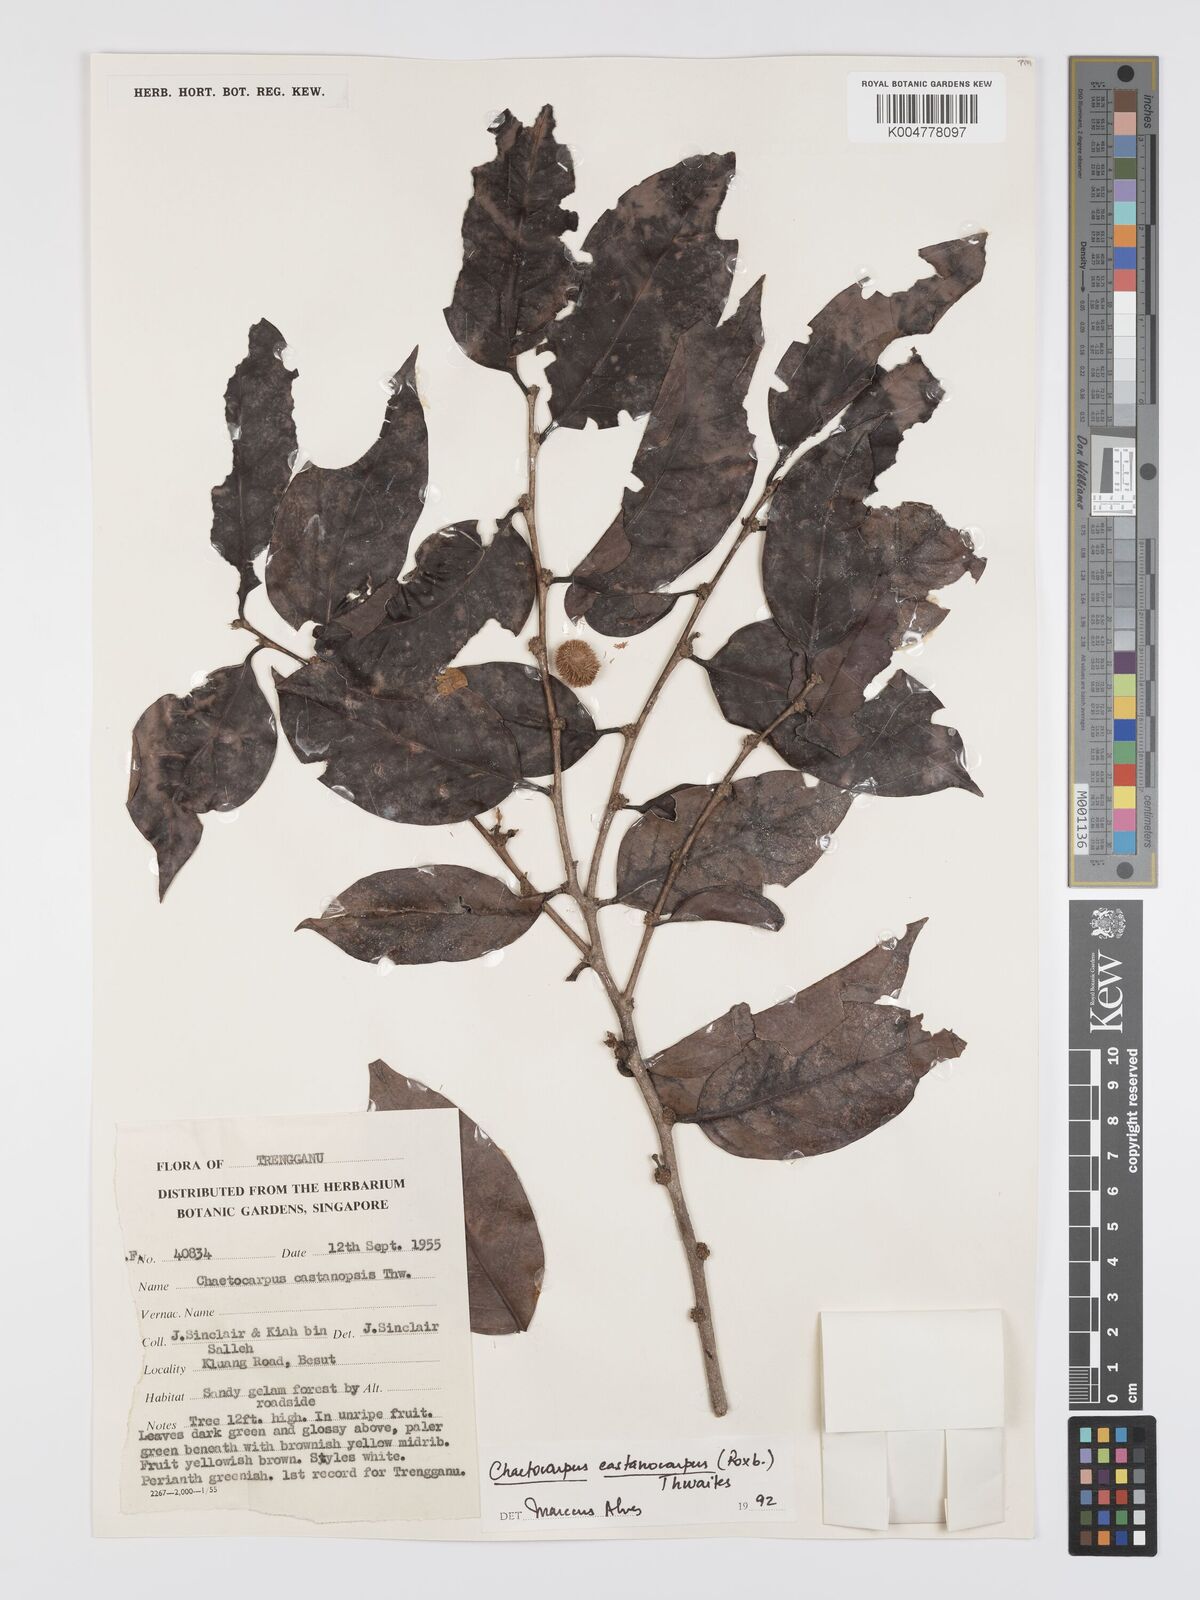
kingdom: Plantae
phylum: Tracheophyta
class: Magnoliopsida
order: Malpighiales
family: Peraceae
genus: Chaetocarpus
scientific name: Chaetocarpus castanocarpus
